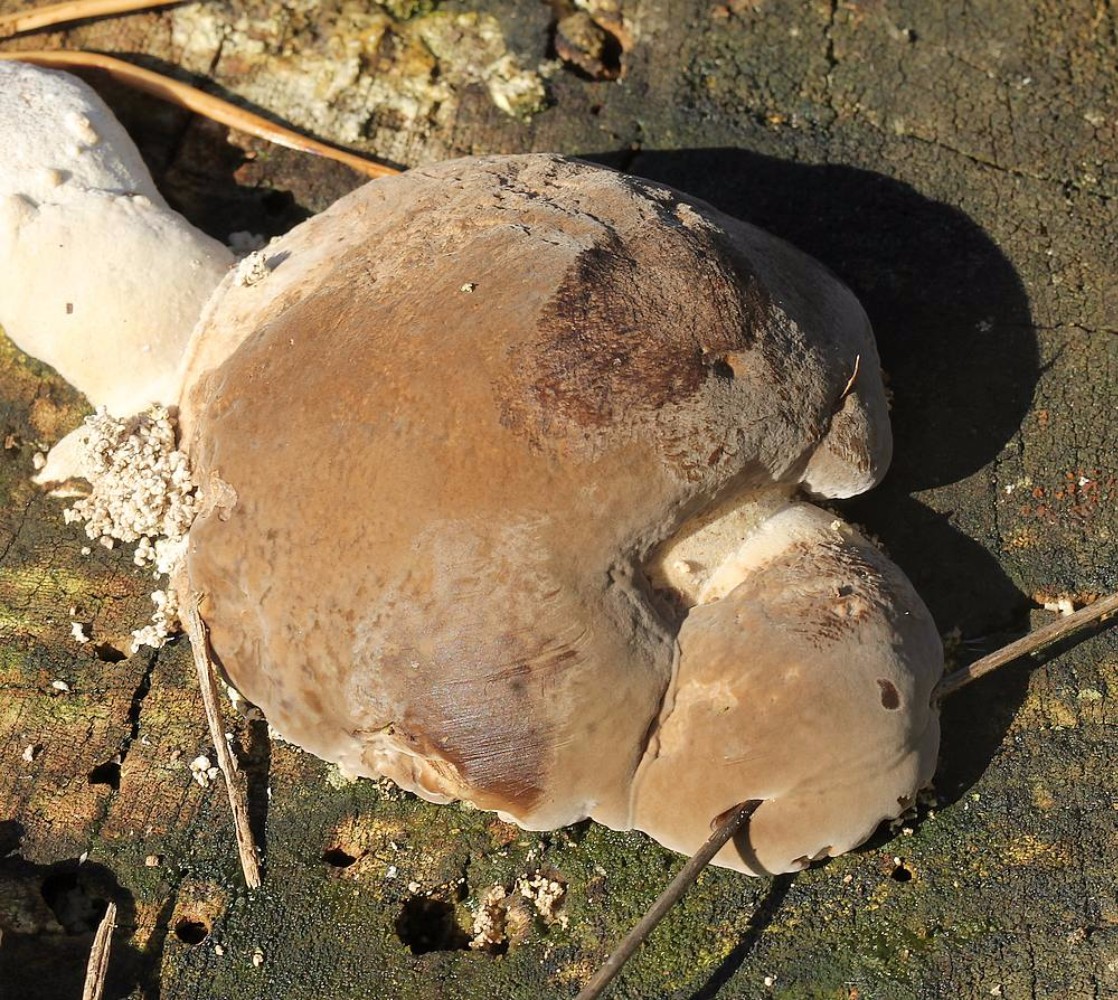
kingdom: Fungi
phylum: Basidiomycota
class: Agaricomycetes
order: Polyporales
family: Polyporaceae
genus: Trametes
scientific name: Trametes gibbosa
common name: puklet læderporesvamp
